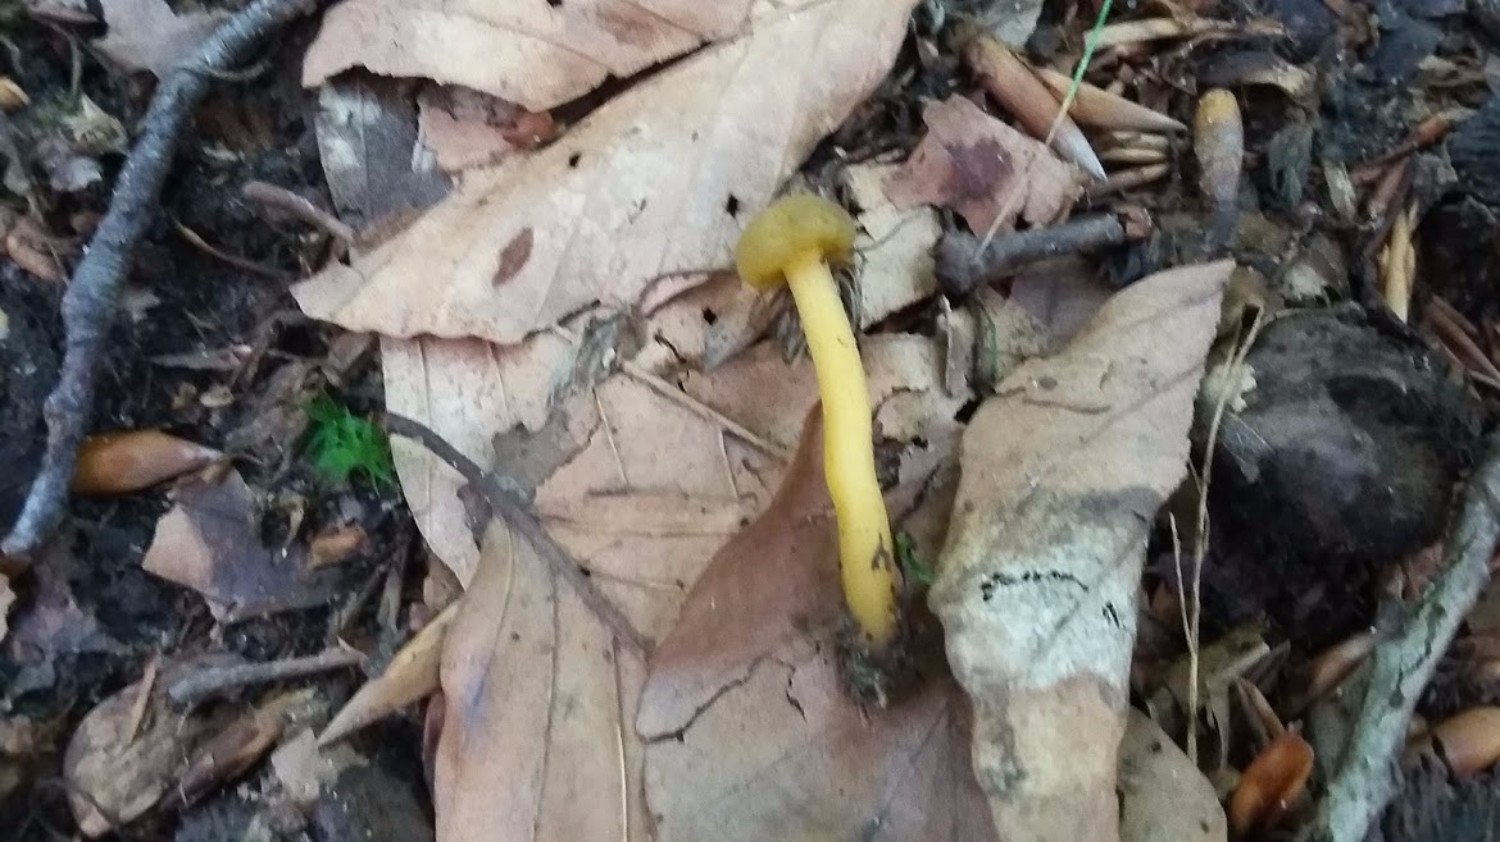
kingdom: Fungi
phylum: Ascomycota
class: Leotiomycetes
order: Leotiales
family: Leotiaceae
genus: Leotia
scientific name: Leotia lubrica
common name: ravsvamp
